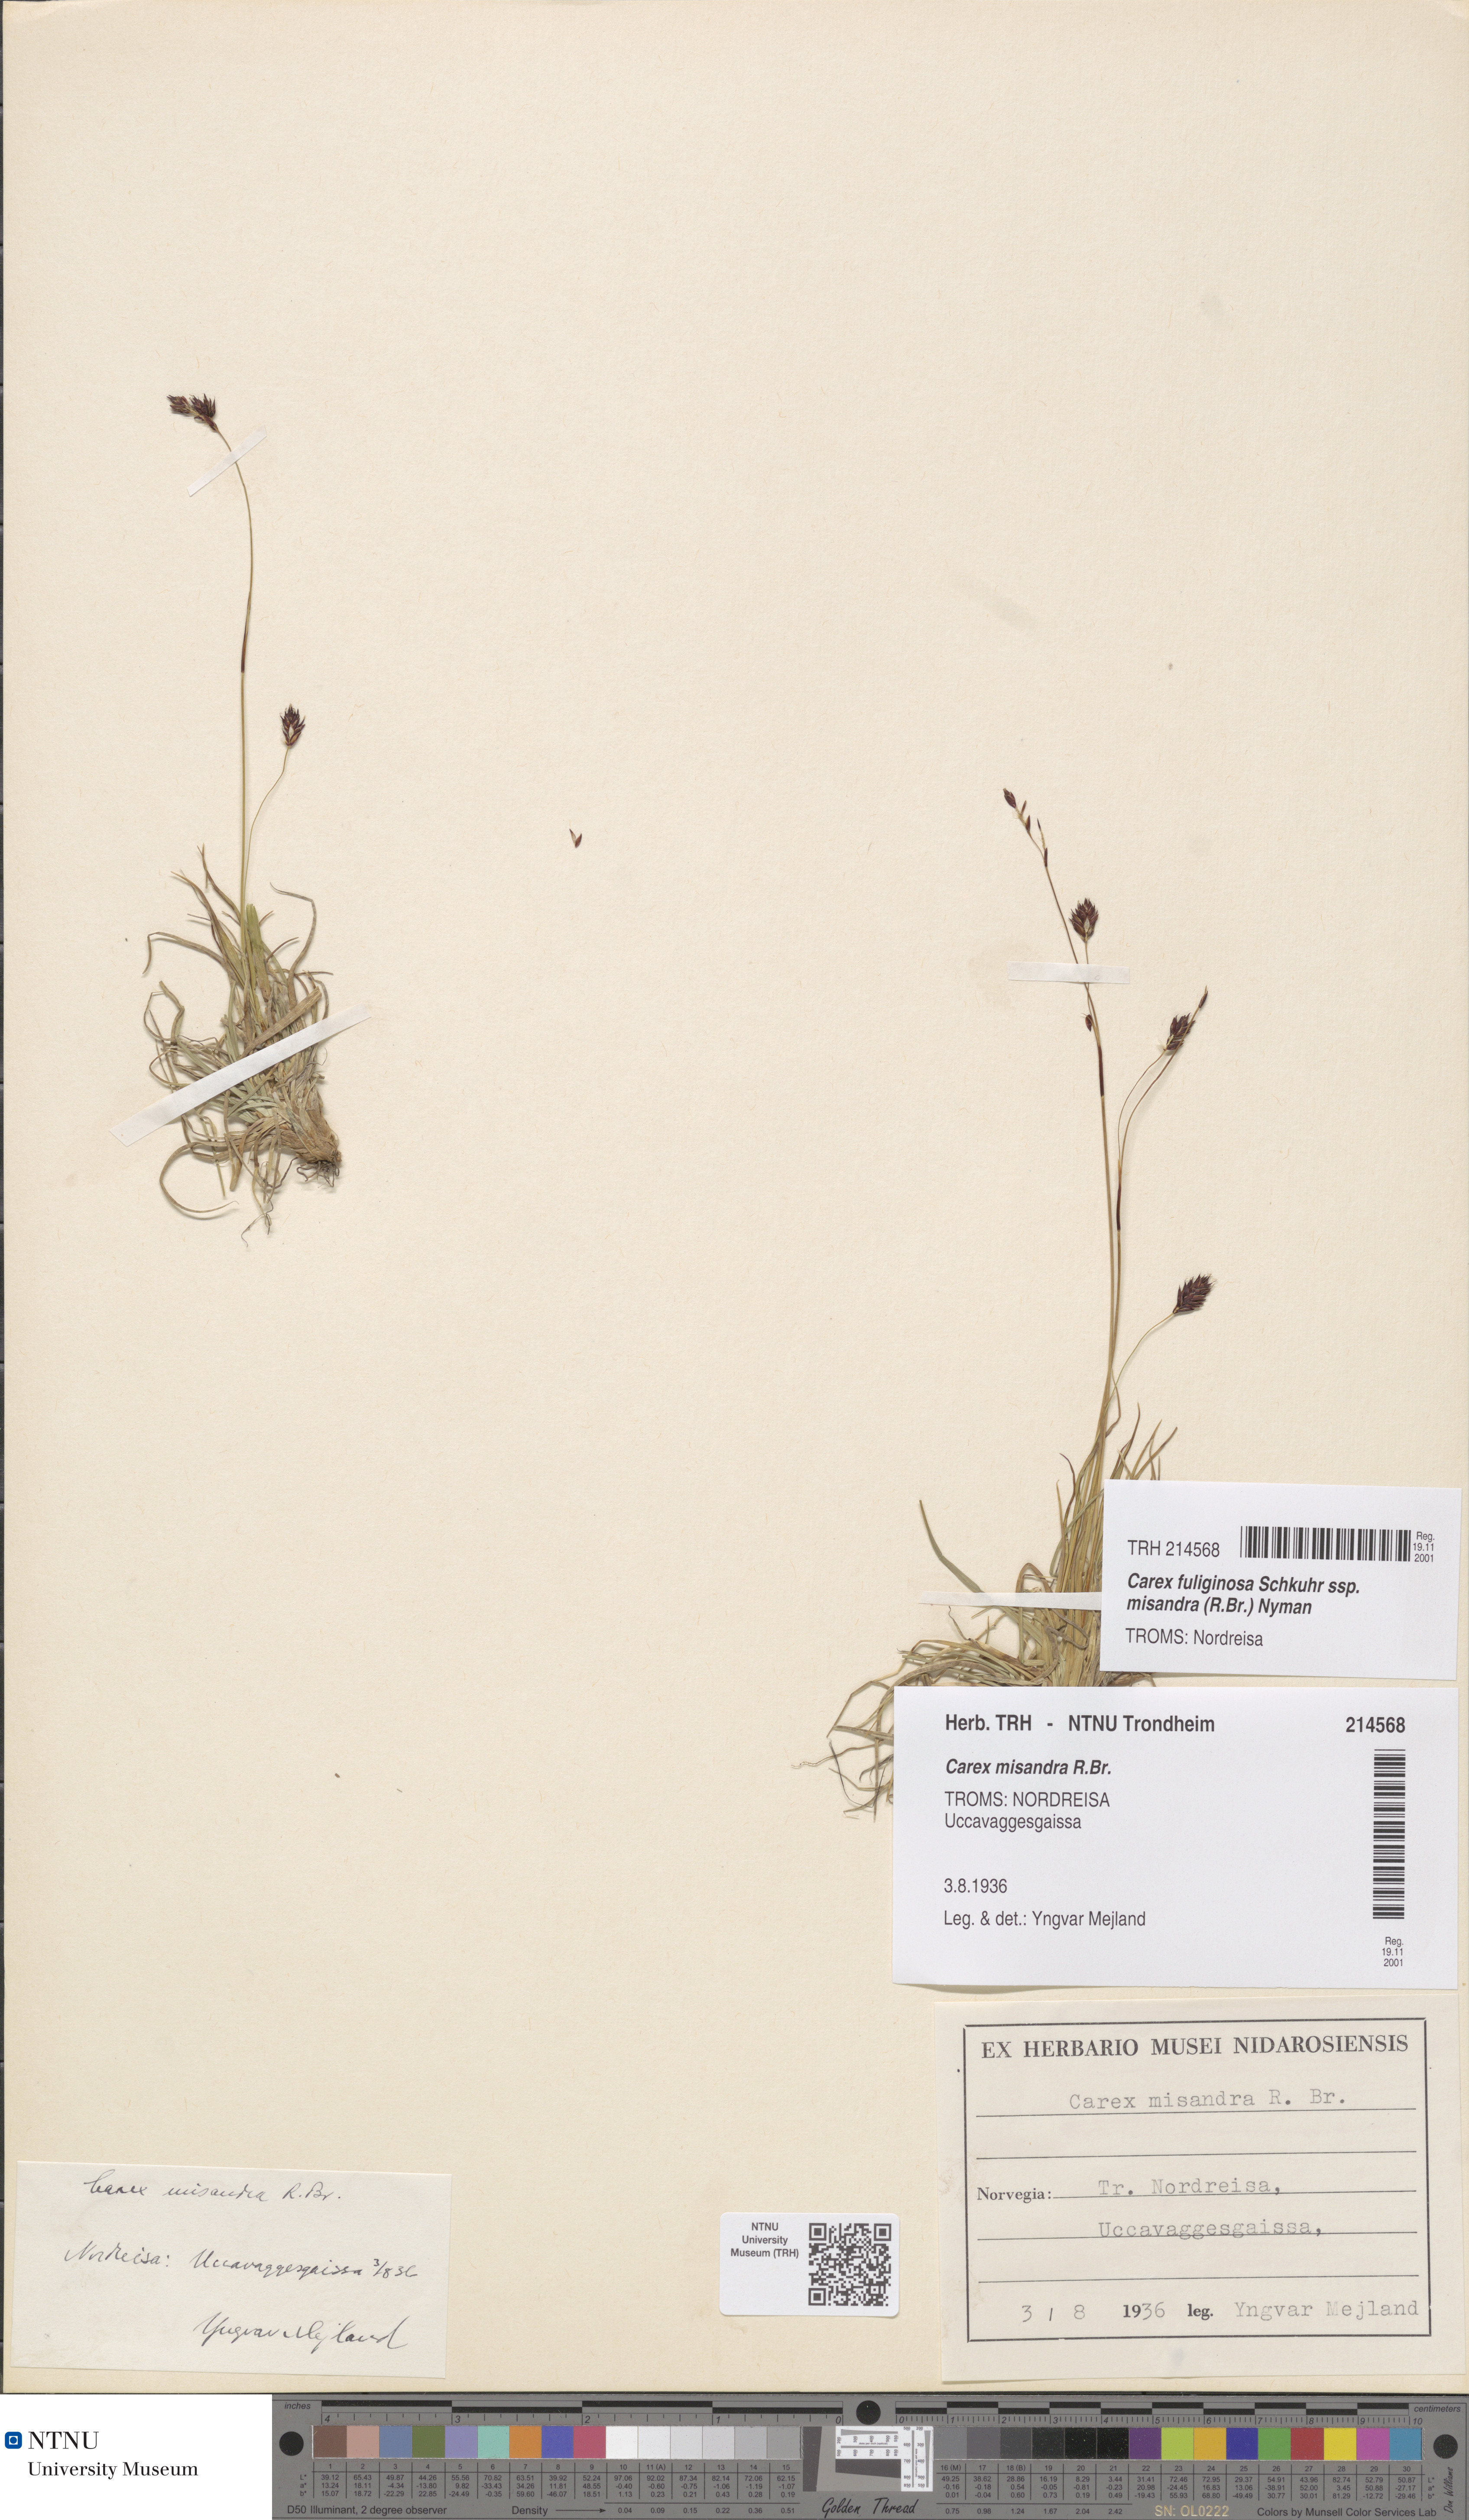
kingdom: Plantae
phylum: Tracheophyta
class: Liliopsida
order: Poales
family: Cyperaceae
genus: Carex
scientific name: Carex fuliginosa
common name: Few-flowered sedge
